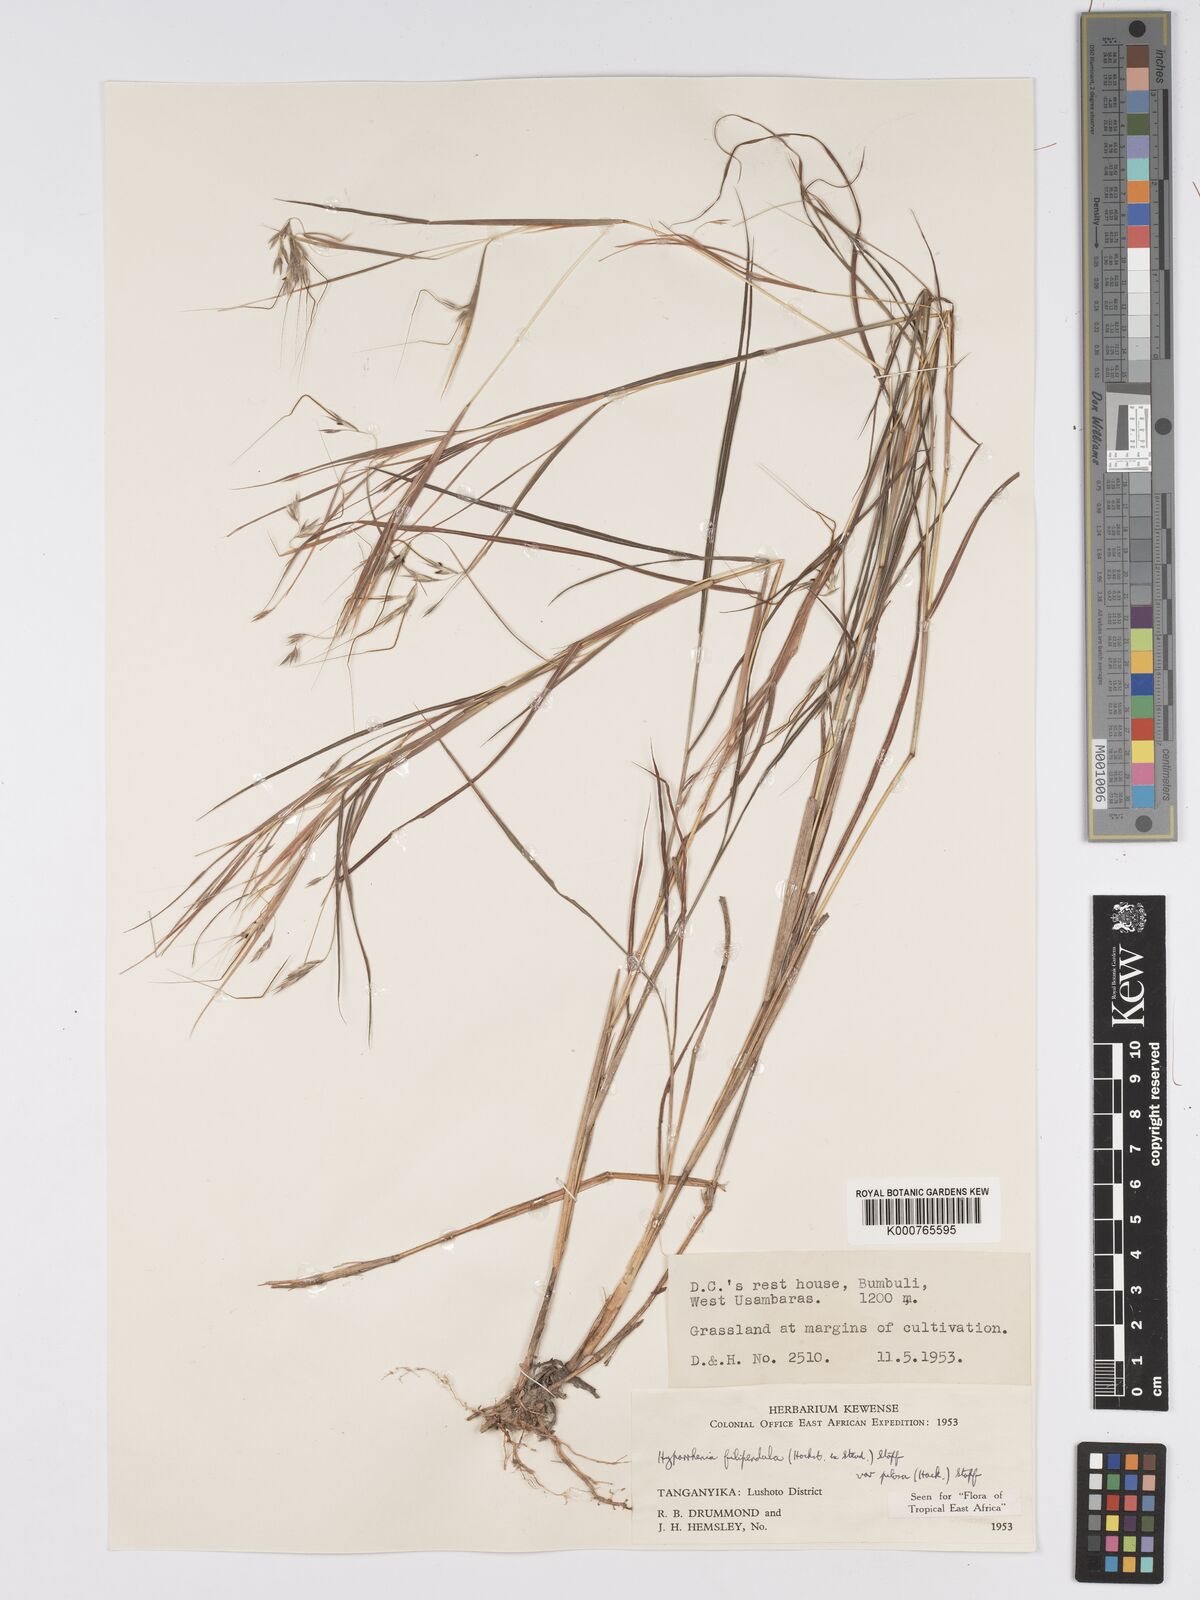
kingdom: Plantae
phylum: Tracheophyta
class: Liliopsida
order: Poales
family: Poaceae
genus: Hyparrhenia
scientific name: Hyparrhenia filipendula
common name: Tambookie grass
